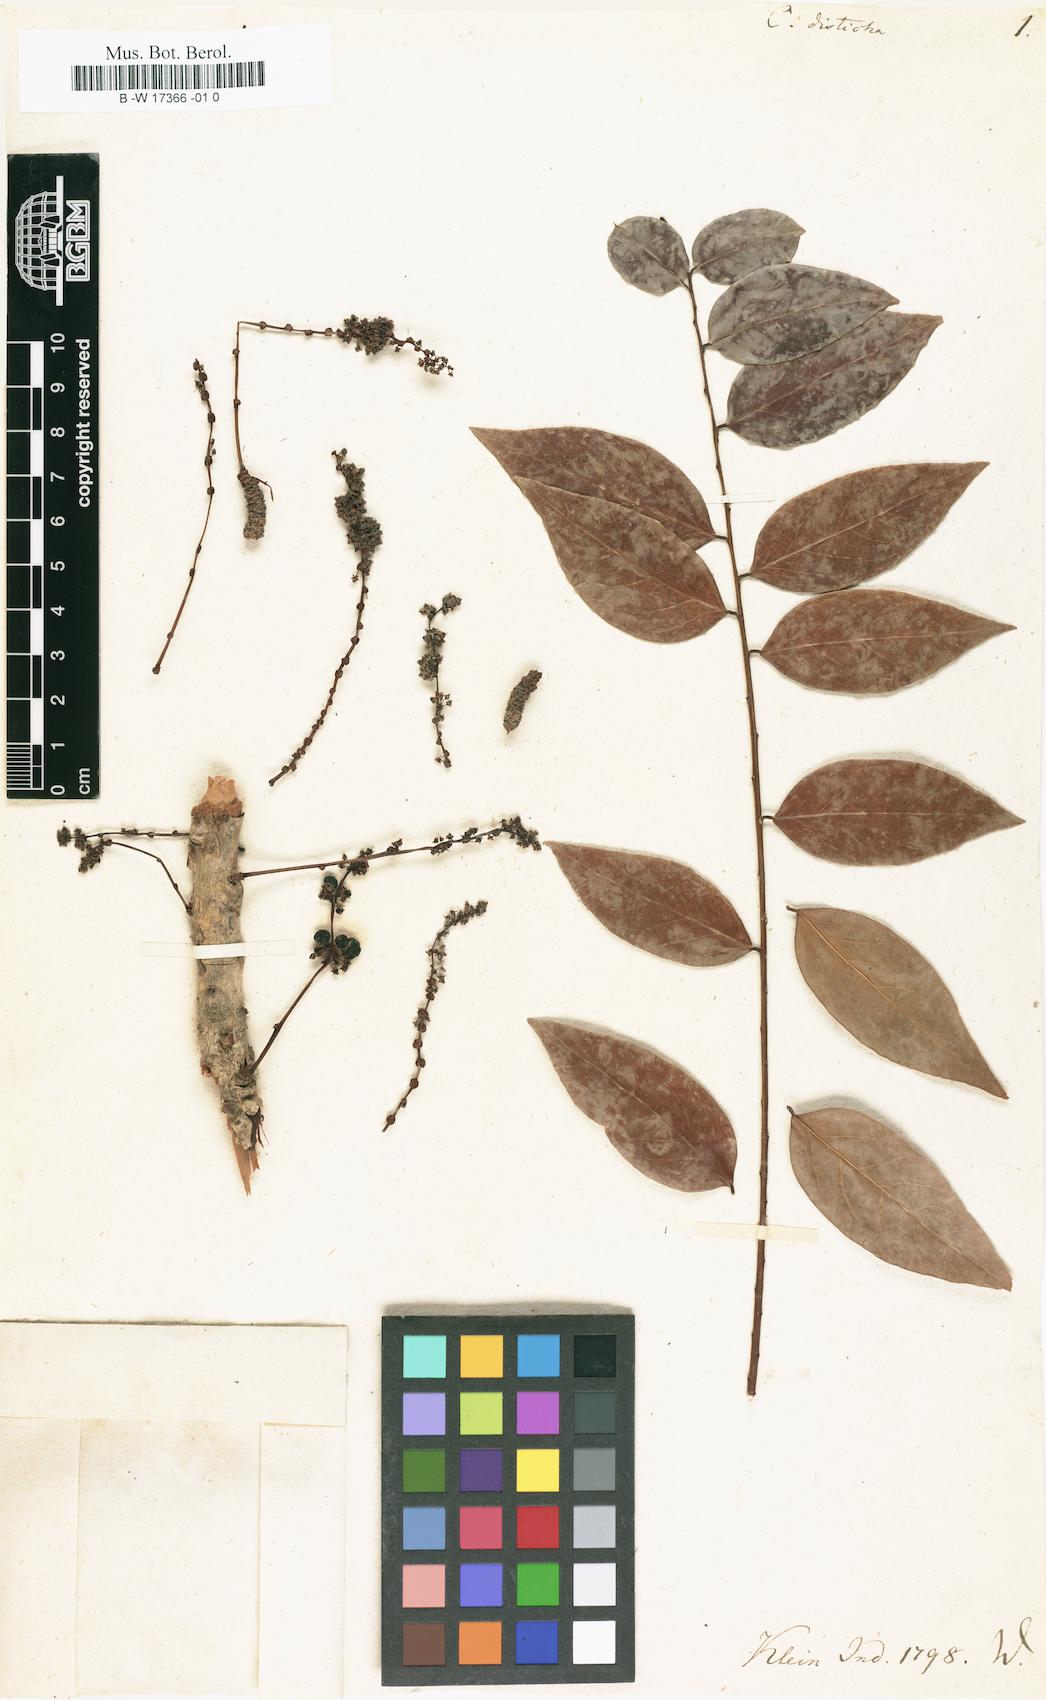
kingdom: Plantae
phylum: Tracheophyta
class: Magnoliopsida
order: Malpighiales
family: Phyllanthaceae
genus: Phyllanthus
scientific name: Phyllanthus acidus
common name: Tahitian gooseberry tree
